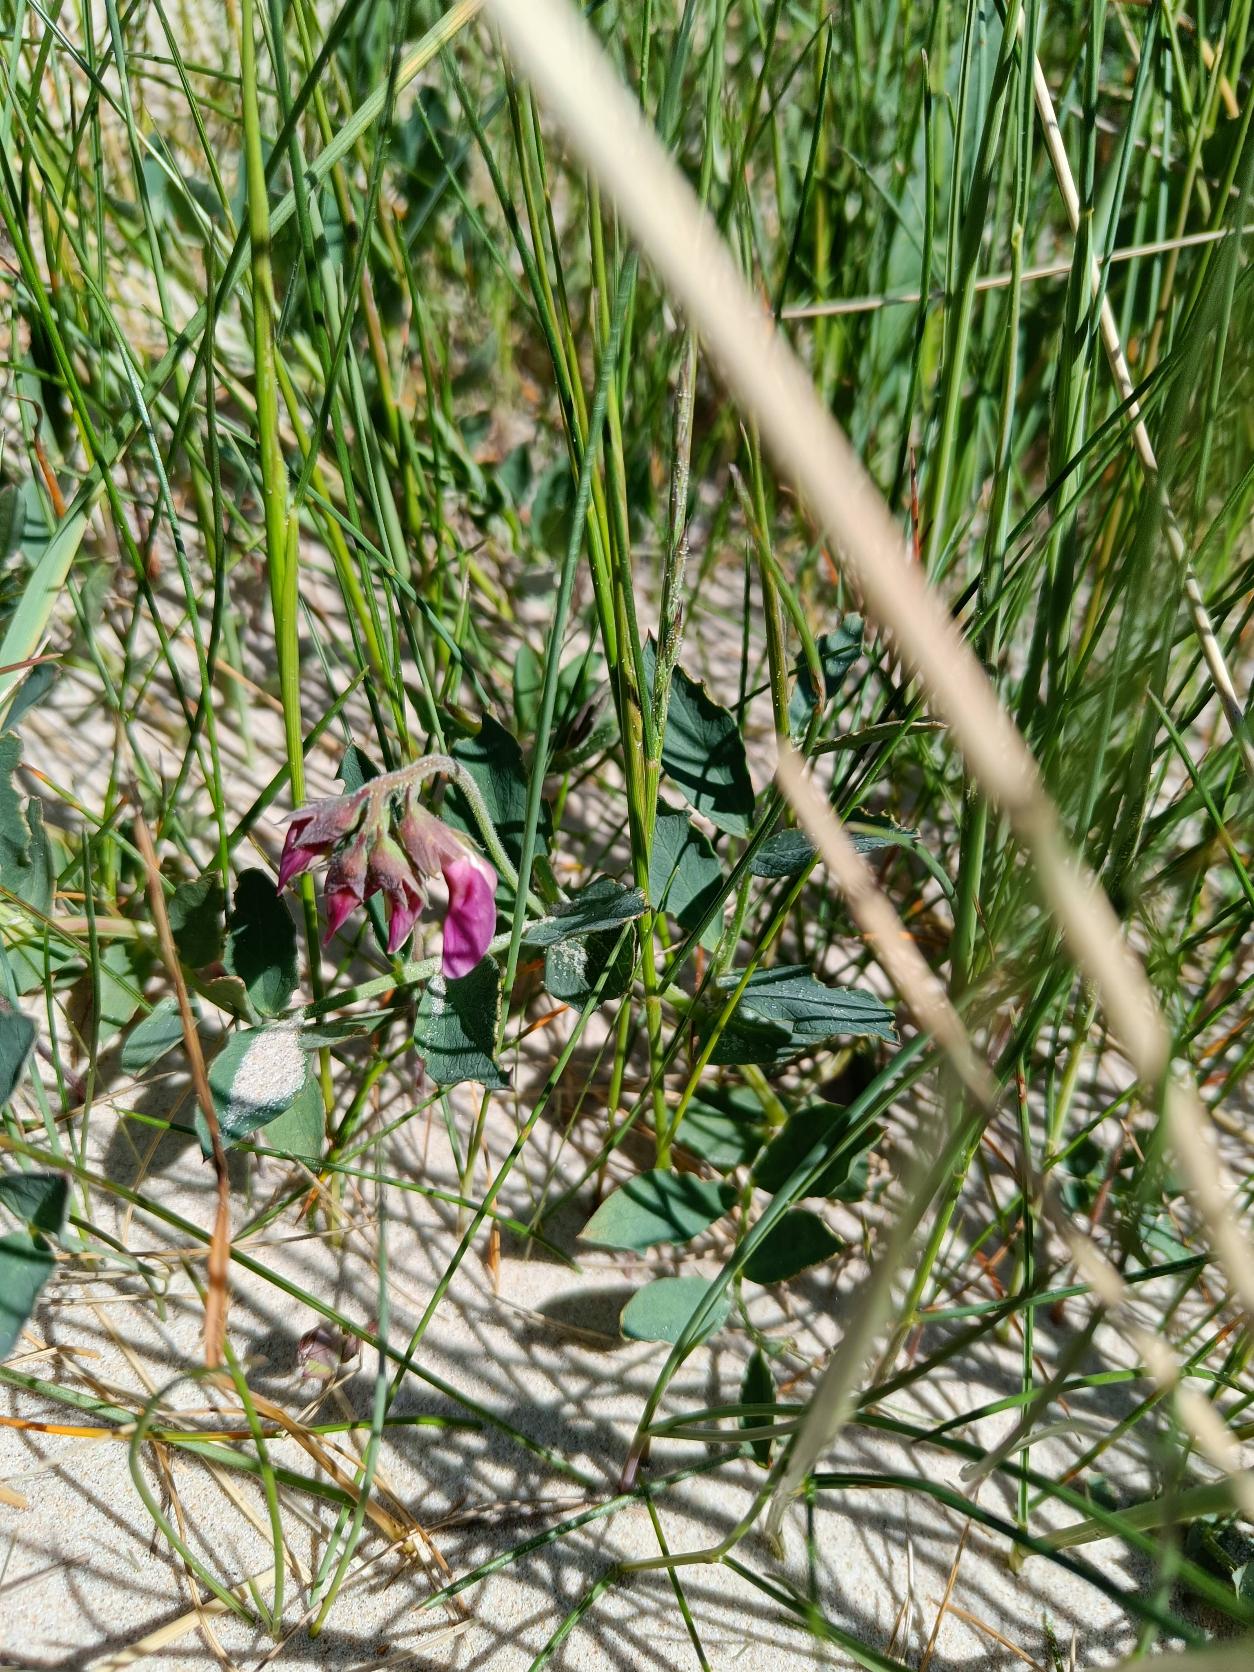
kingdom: Plantae
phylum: Tracheophyta
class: Magnoliopsida
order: Fabales
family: Fabaceae
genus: Lathyrus
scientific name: Lathyrus japonicus
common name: Strand-fladbælg
